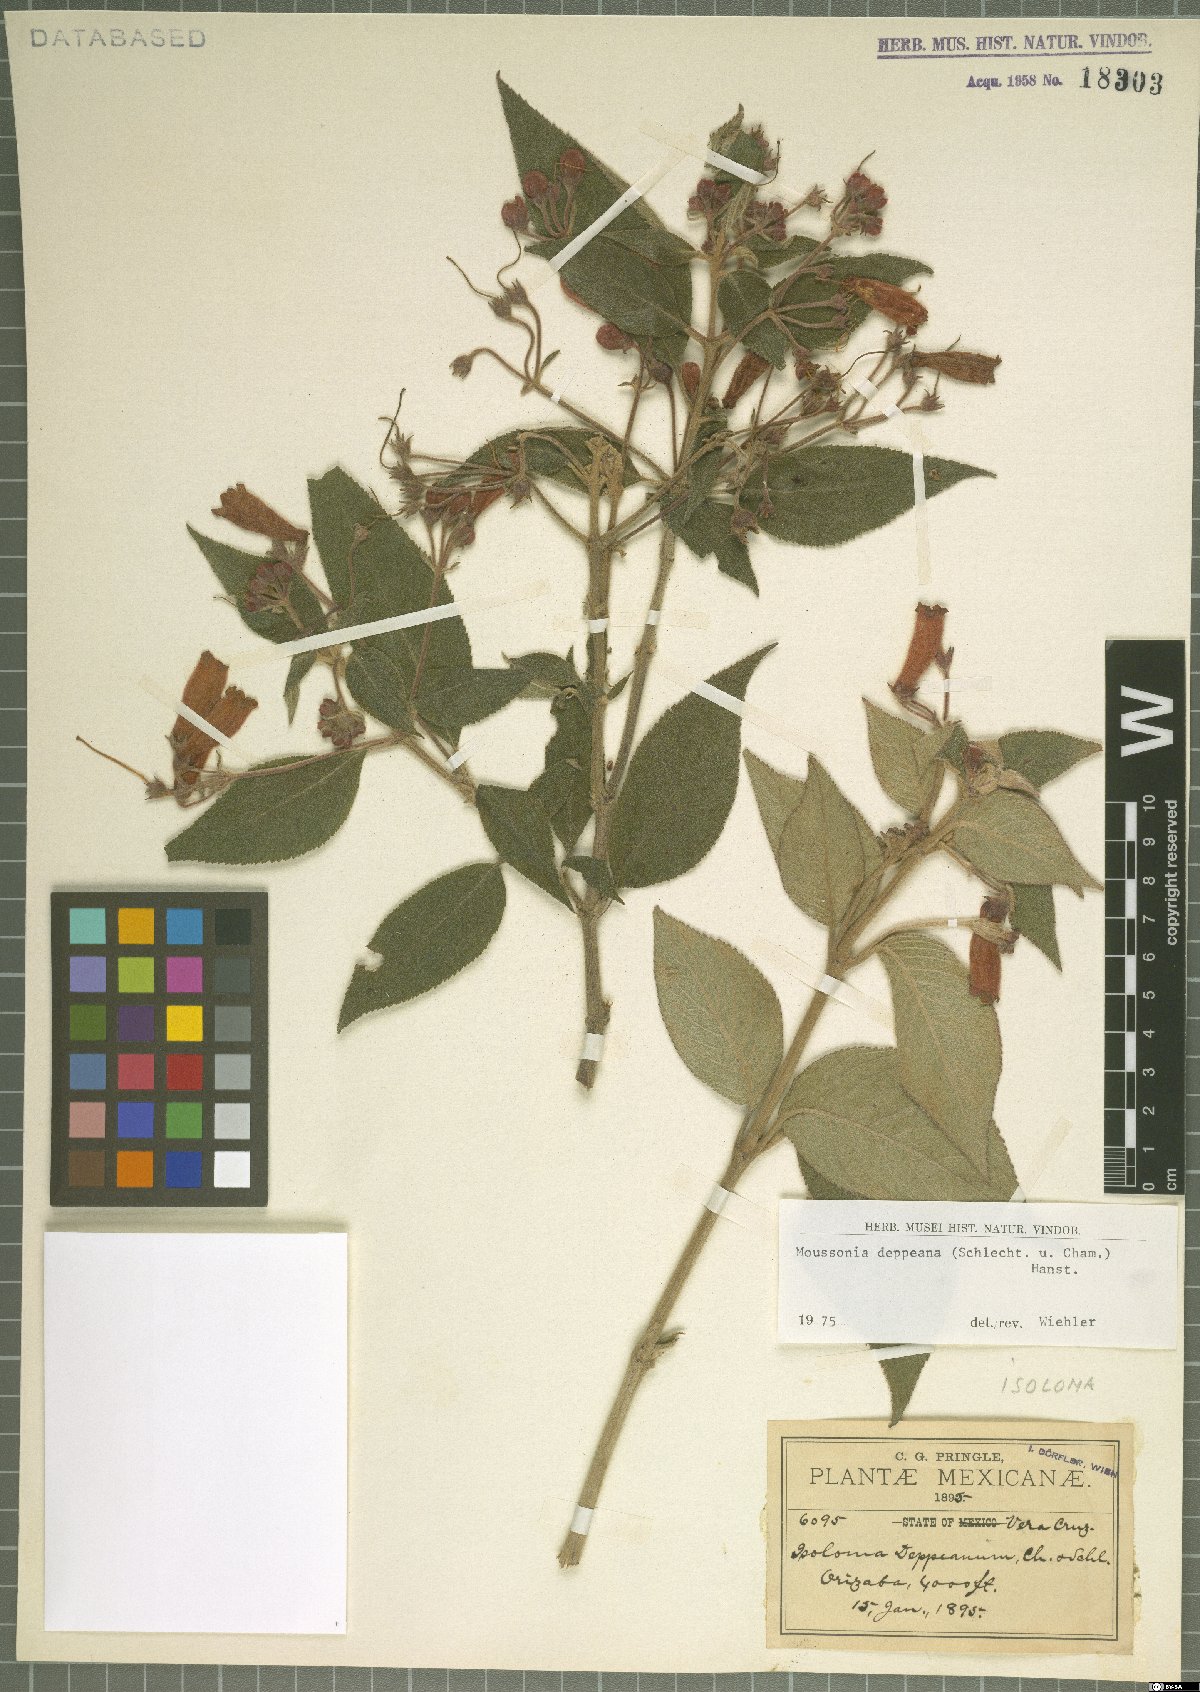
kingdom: Plantae
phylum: Tracheophyta
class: Magnoliopsida
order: Lamiales
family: Gesneriaceae
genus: Moussonia
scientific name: Moussonia deppeana
